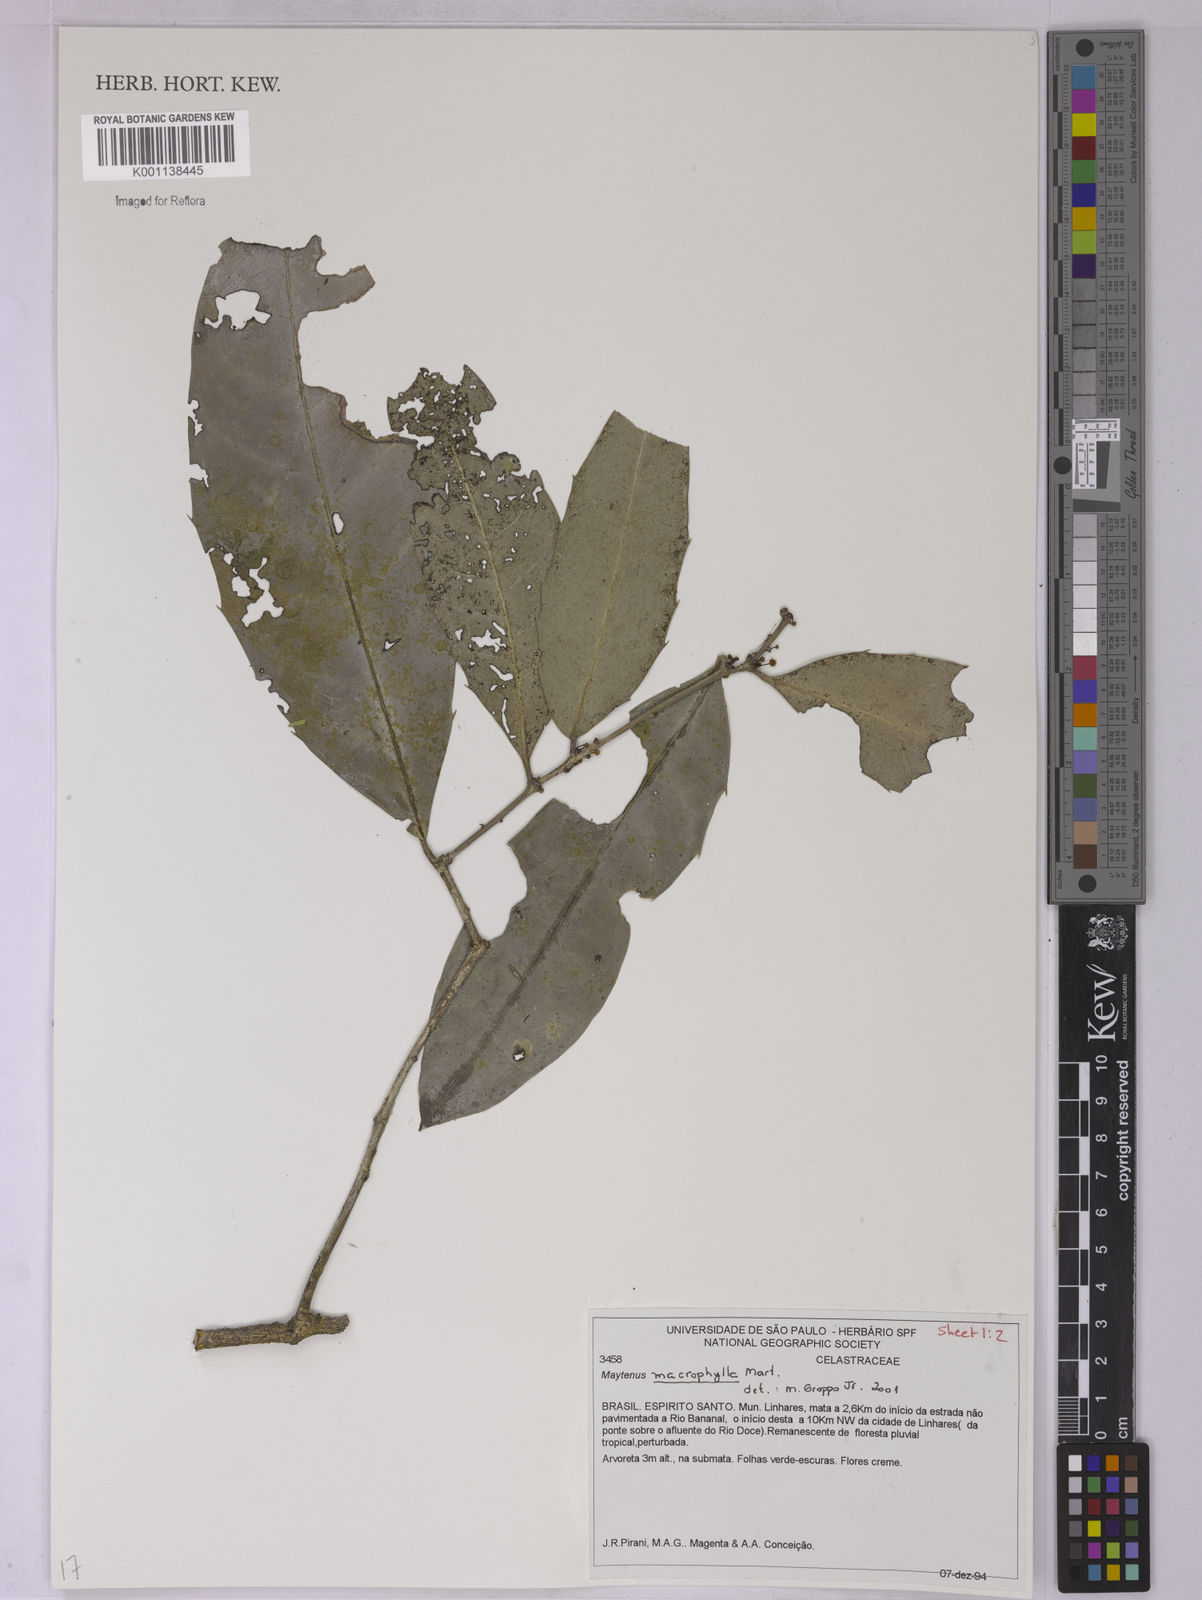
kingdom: Plantae
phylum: Tracheophyta
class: Magnoliopsida
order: Celastrales
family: Celastraceae
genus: Monteverdia
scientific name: Monteverdia macrophylla
